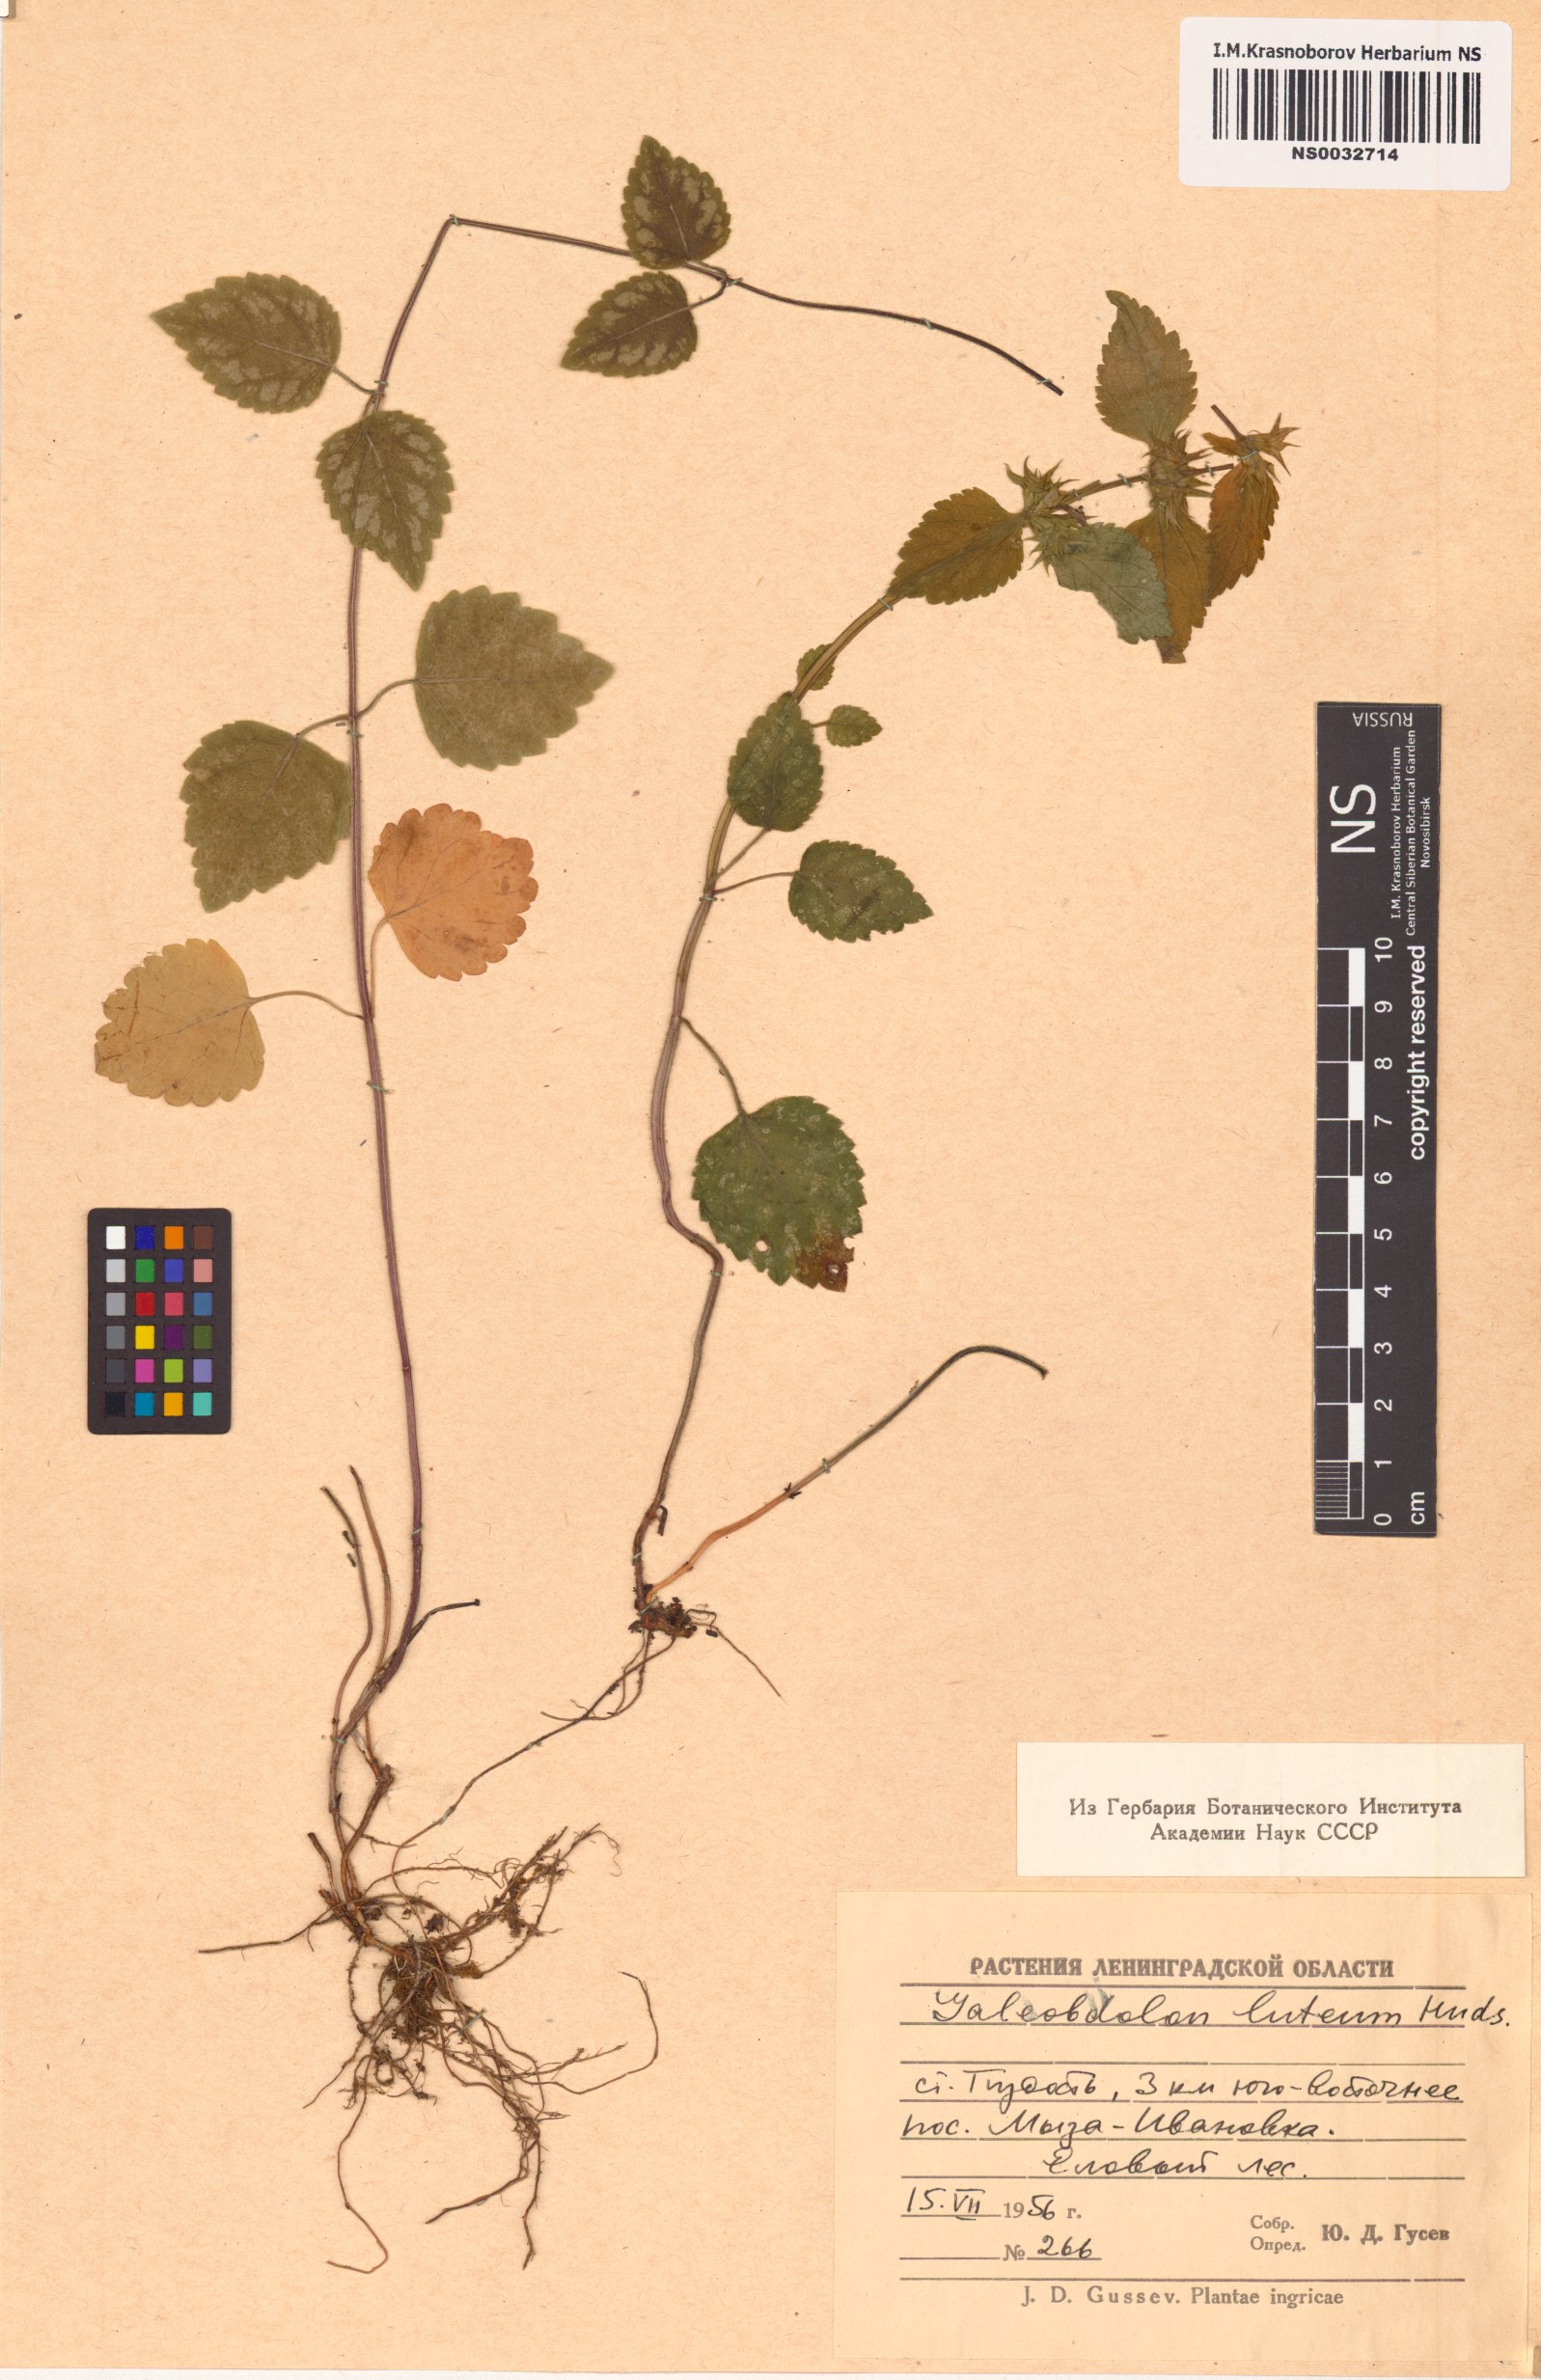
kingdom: Plantae
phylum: Tracheophyta
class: Magnoliopsida
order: Lamiales
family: Lamiaceae
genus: Lamium
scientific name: Lamium galeobdolon
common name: Yellow archangel
